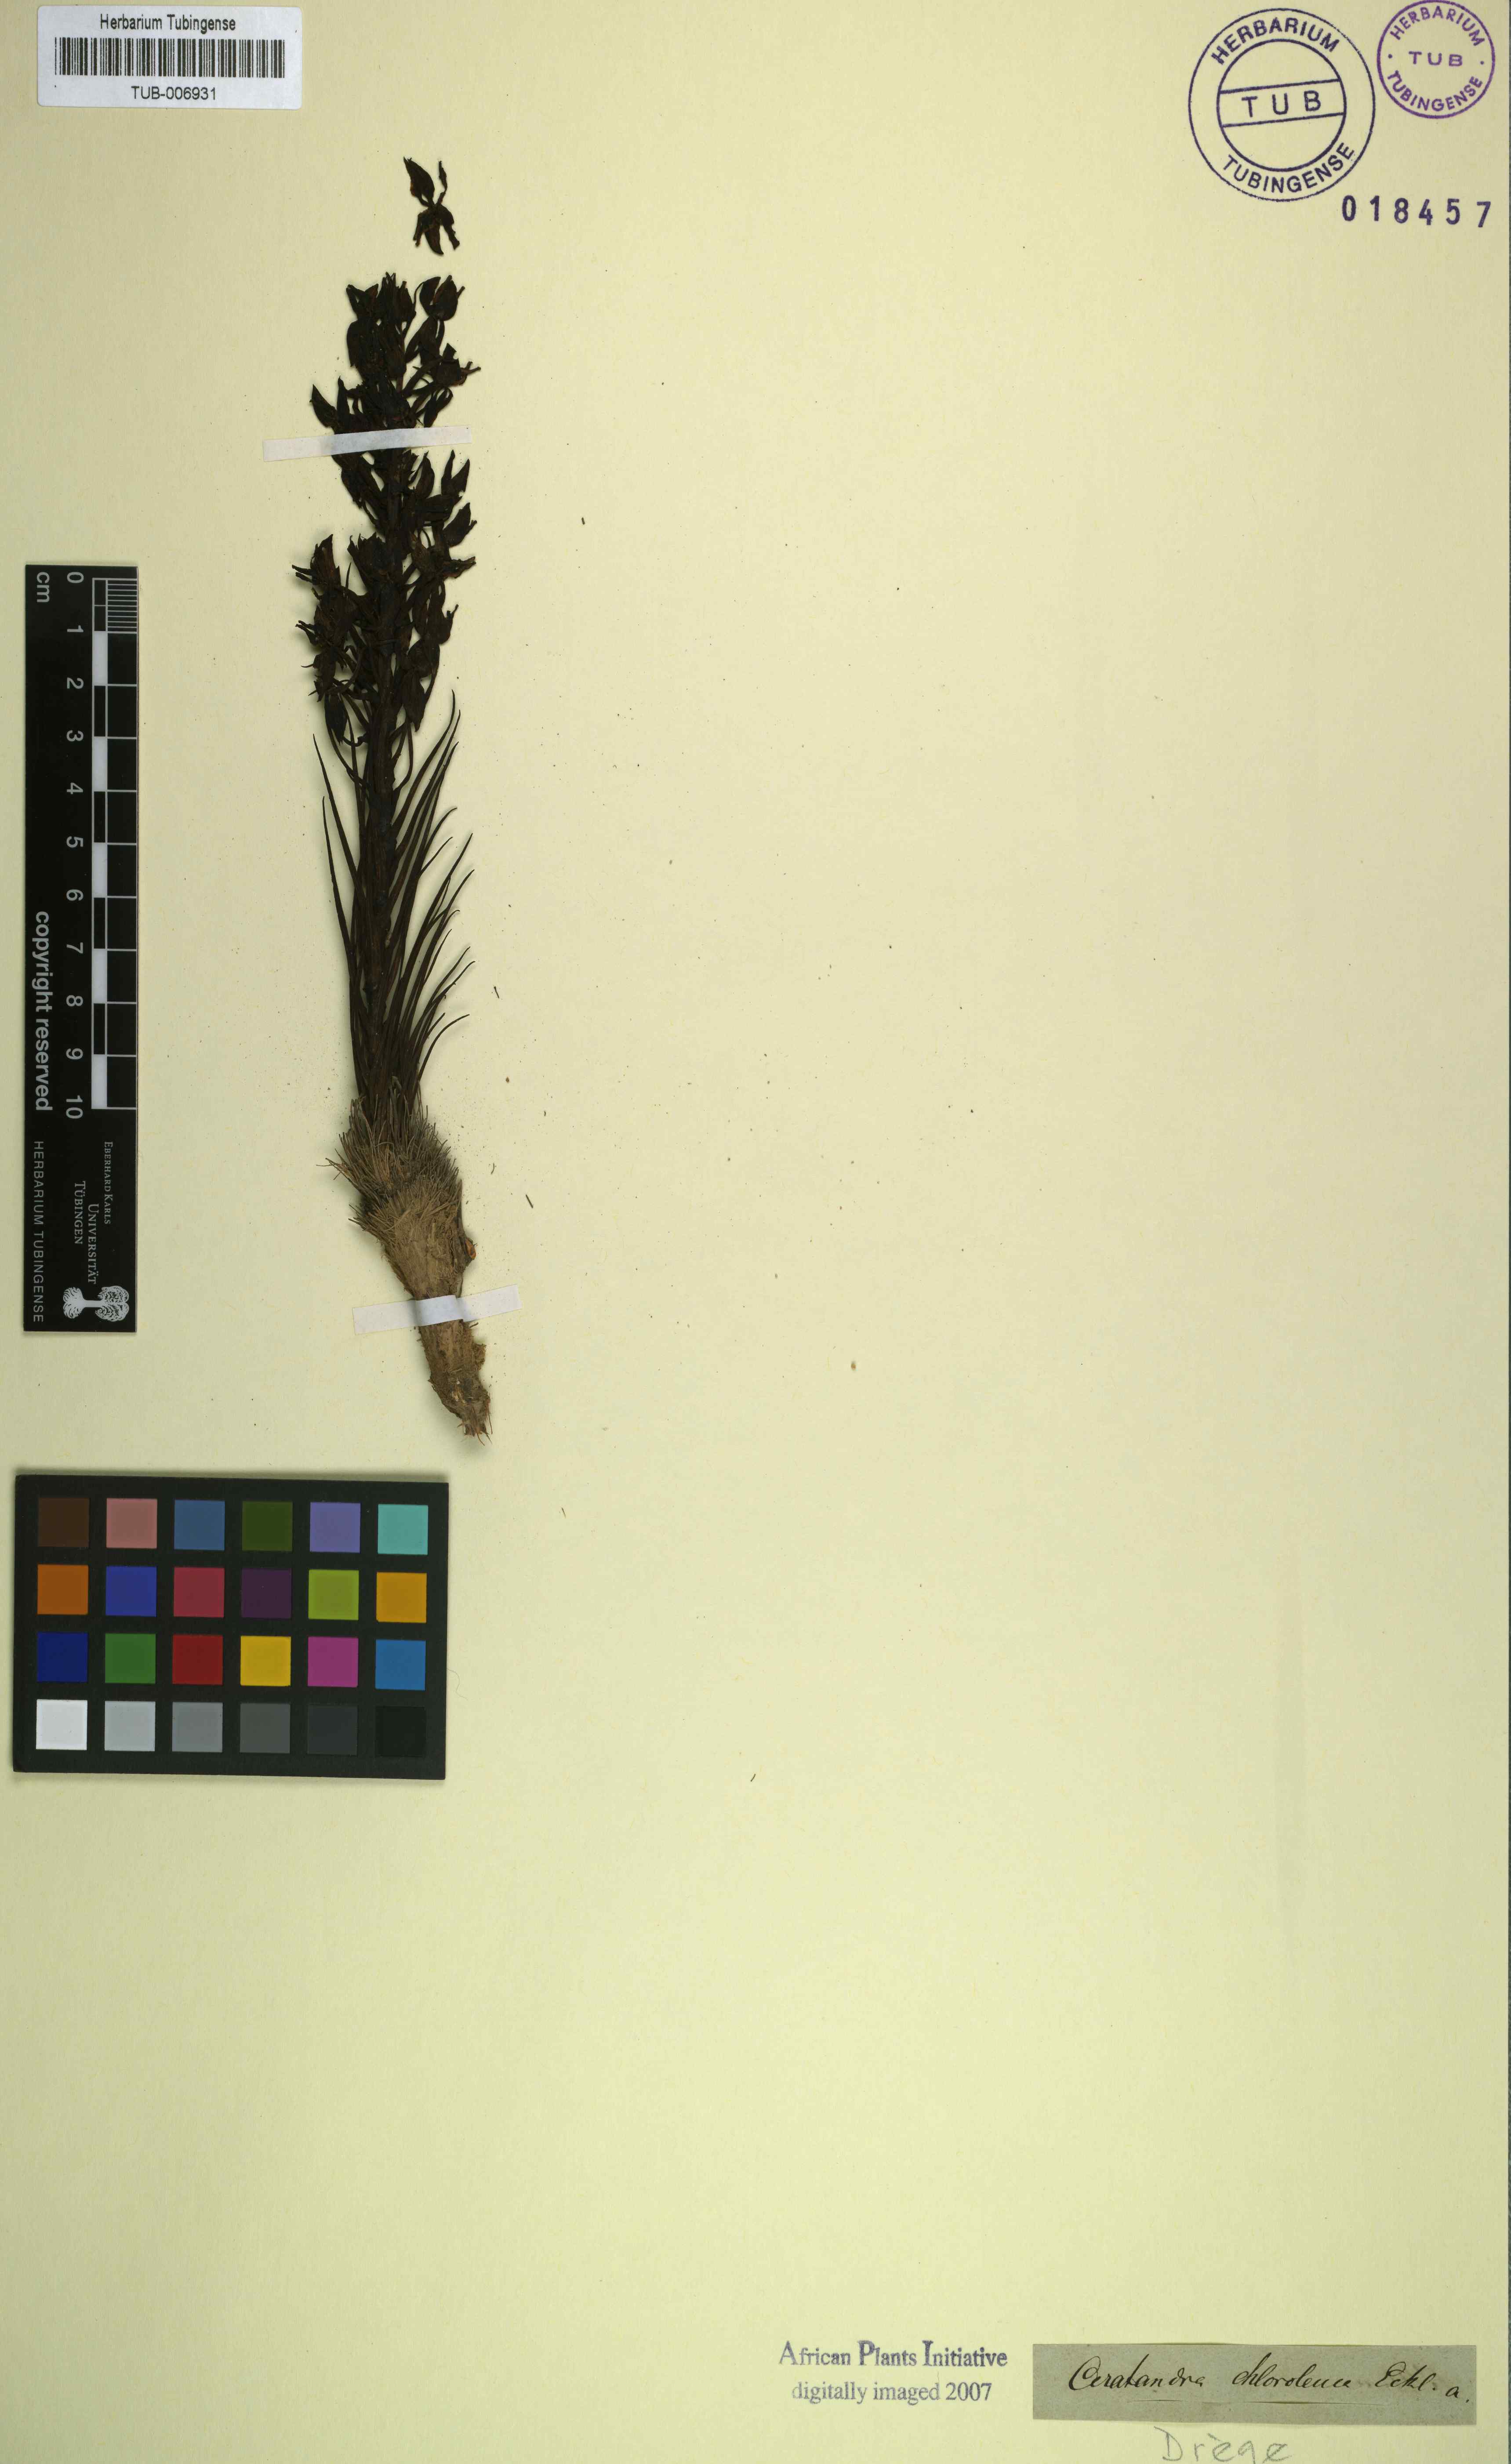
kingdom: Plantae
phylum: Tracheophyta
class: Liliopsida
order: Asparagales
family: Orchidaceae
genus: Ceratandra
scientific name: Ceratandra atrata
